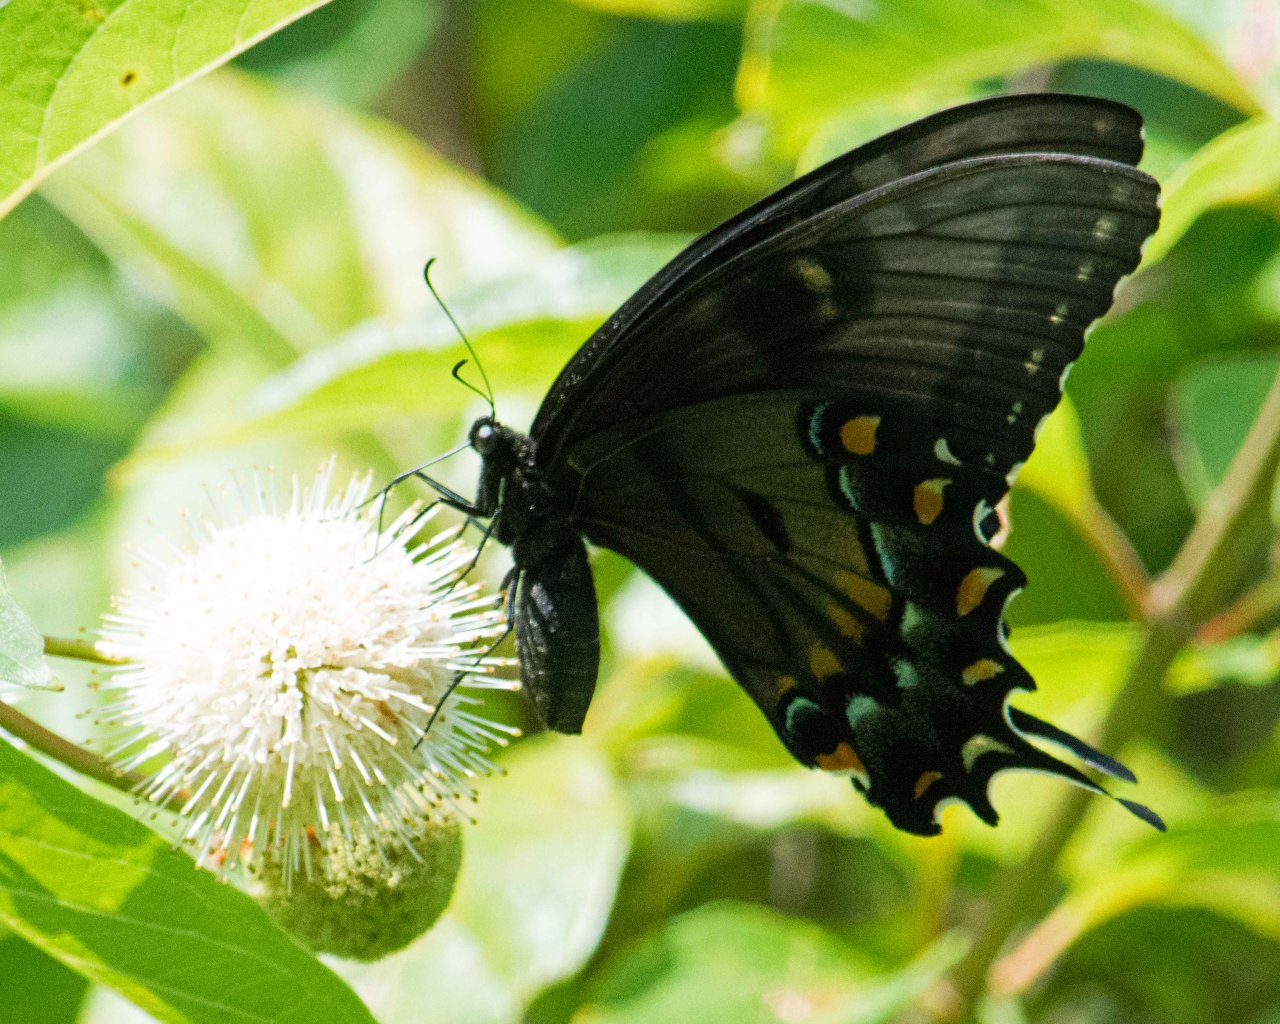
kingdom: Animalia
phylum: Arthropoda
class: Insecta
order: Lepidoptera
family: Papilionidae
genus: Pterourus
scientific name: Pterourus glaucus
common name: Eastern Tiger Swallowtail
